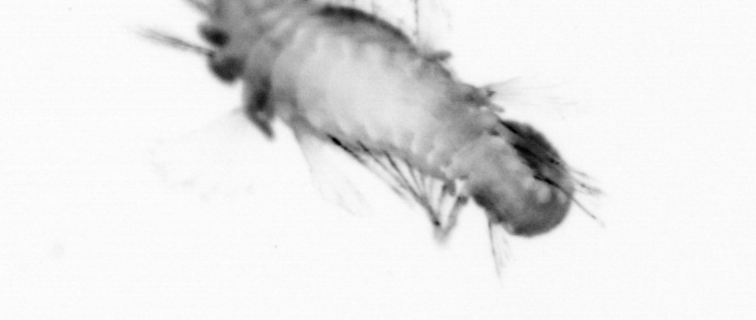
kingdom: Animalia
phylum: Annelida
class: Polychaeta
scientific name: Polychaeta
